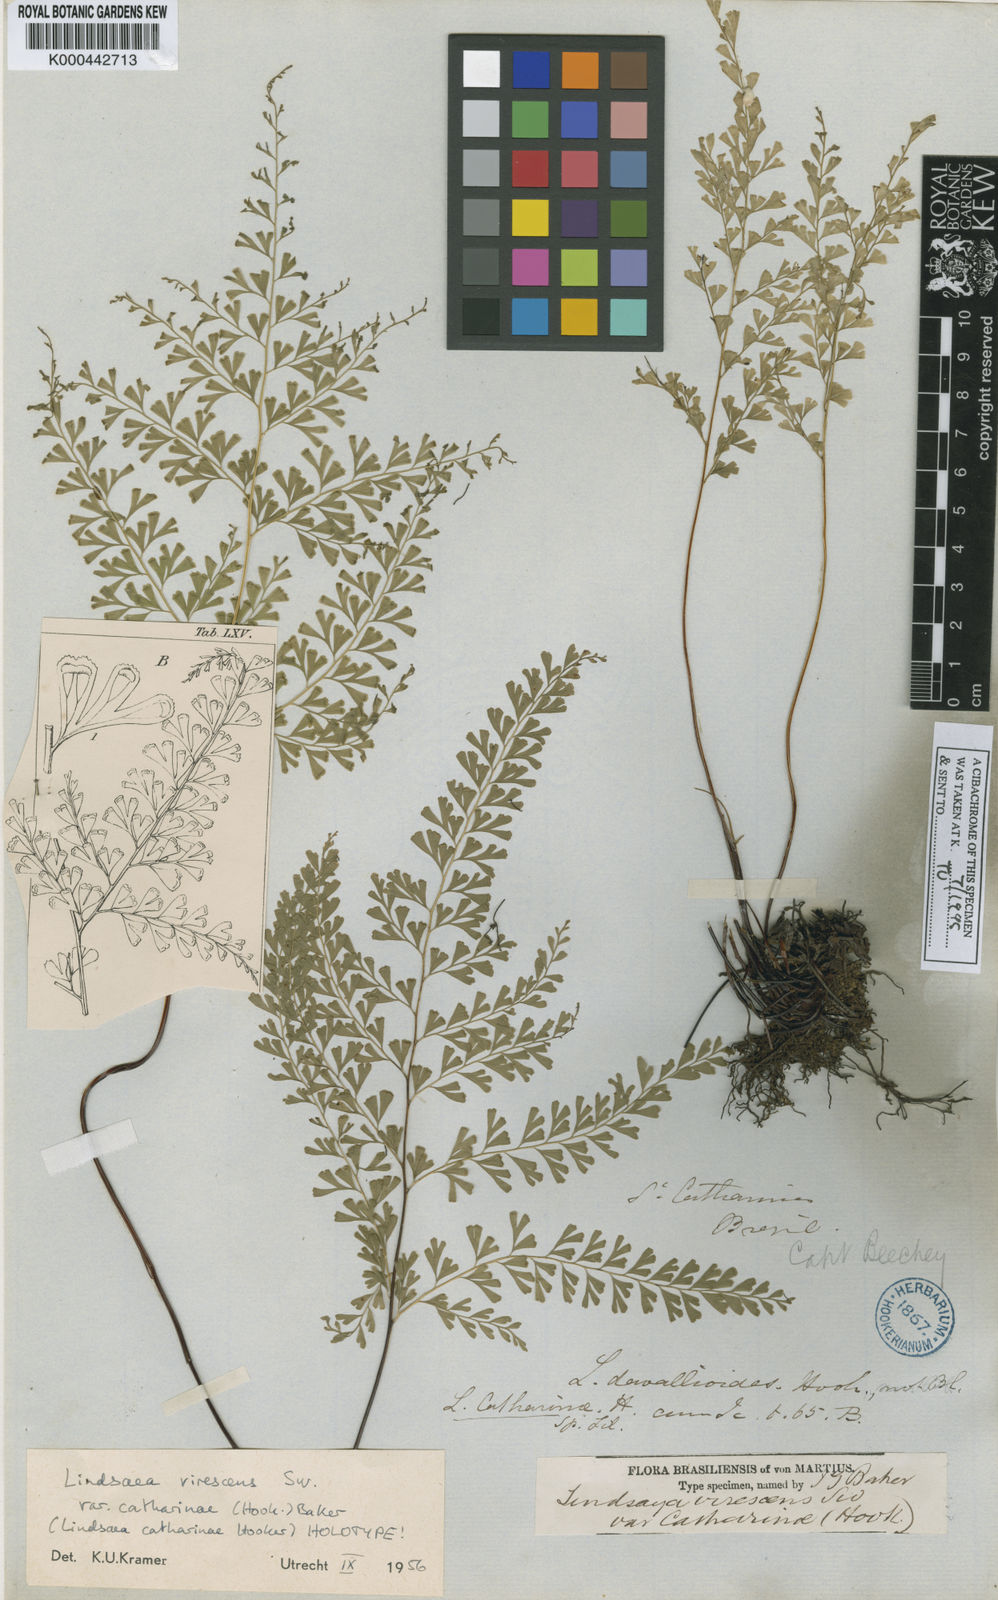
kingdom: Plantae
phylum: Tracheophyta
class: Polypodiopsida
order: Polypodiales
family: Lindsaeaceae
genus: Lindsaea
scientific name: Lindsaea virescens
